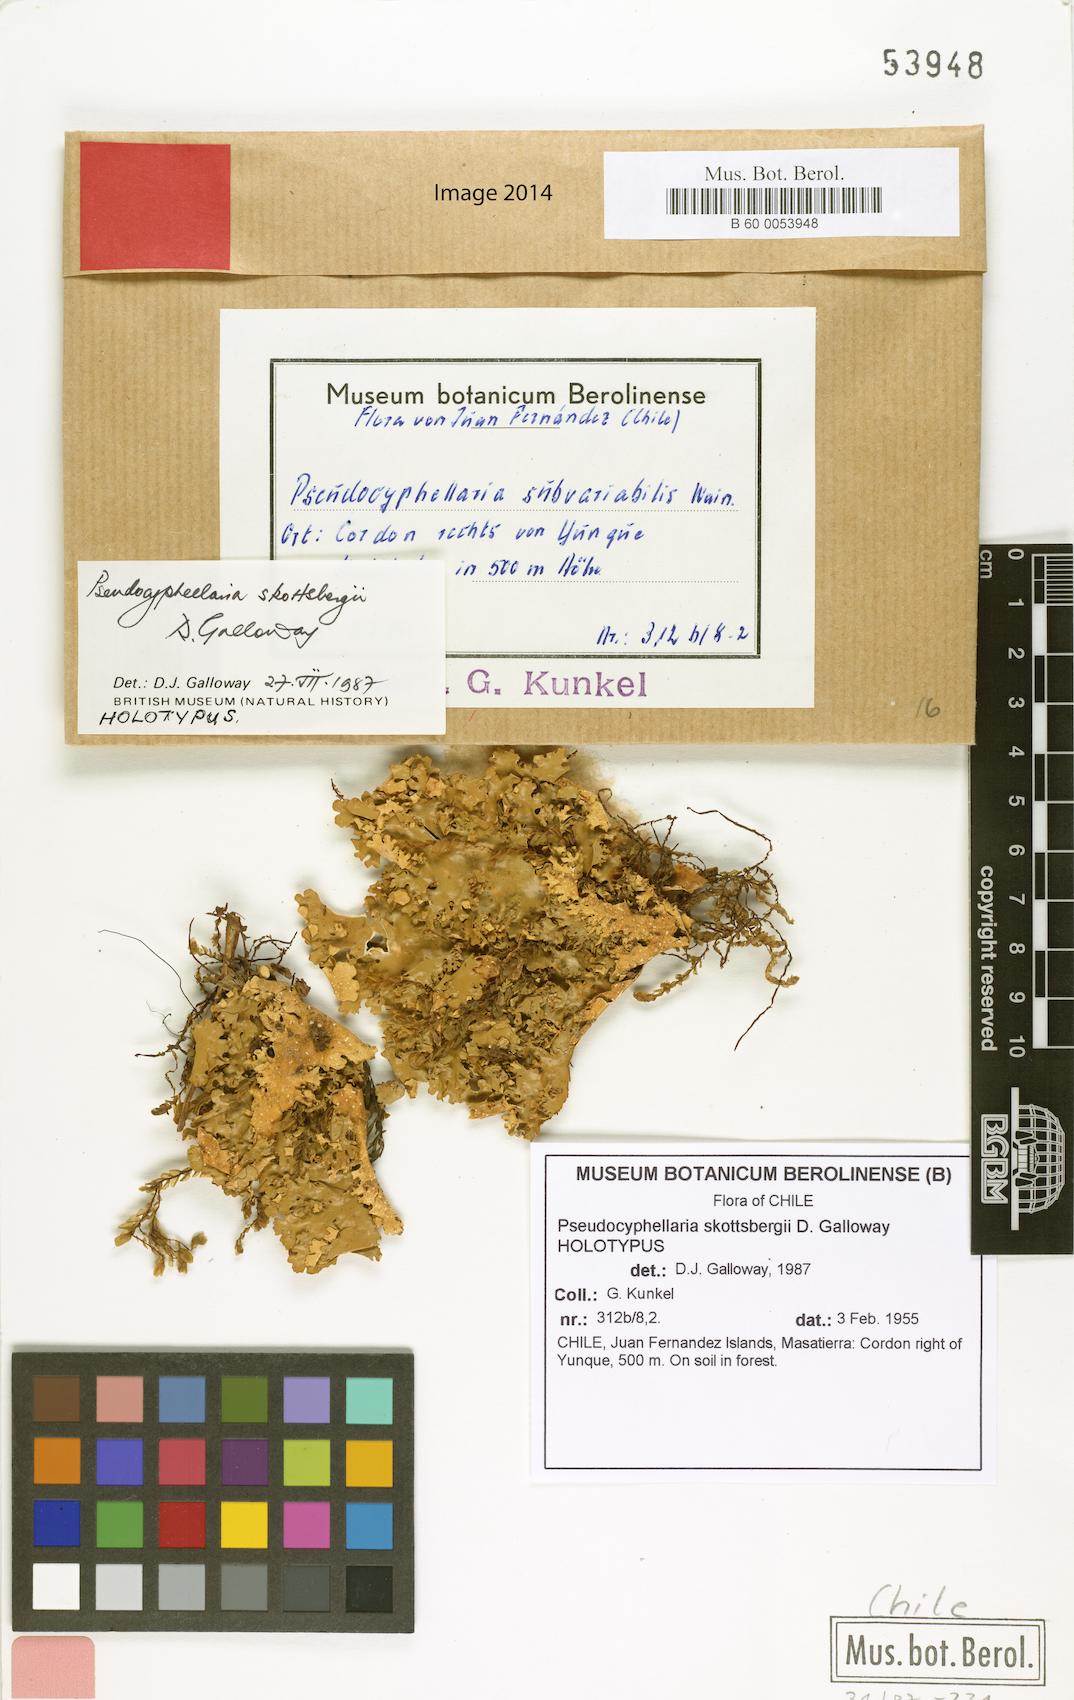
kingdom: Fungi
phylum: Ascomycota
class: Lecanoromycetes
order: Peltigerales
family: Lobariaceae
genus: Pseudocyphellaria
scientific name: Pseudocyphellaria skottsbergii
